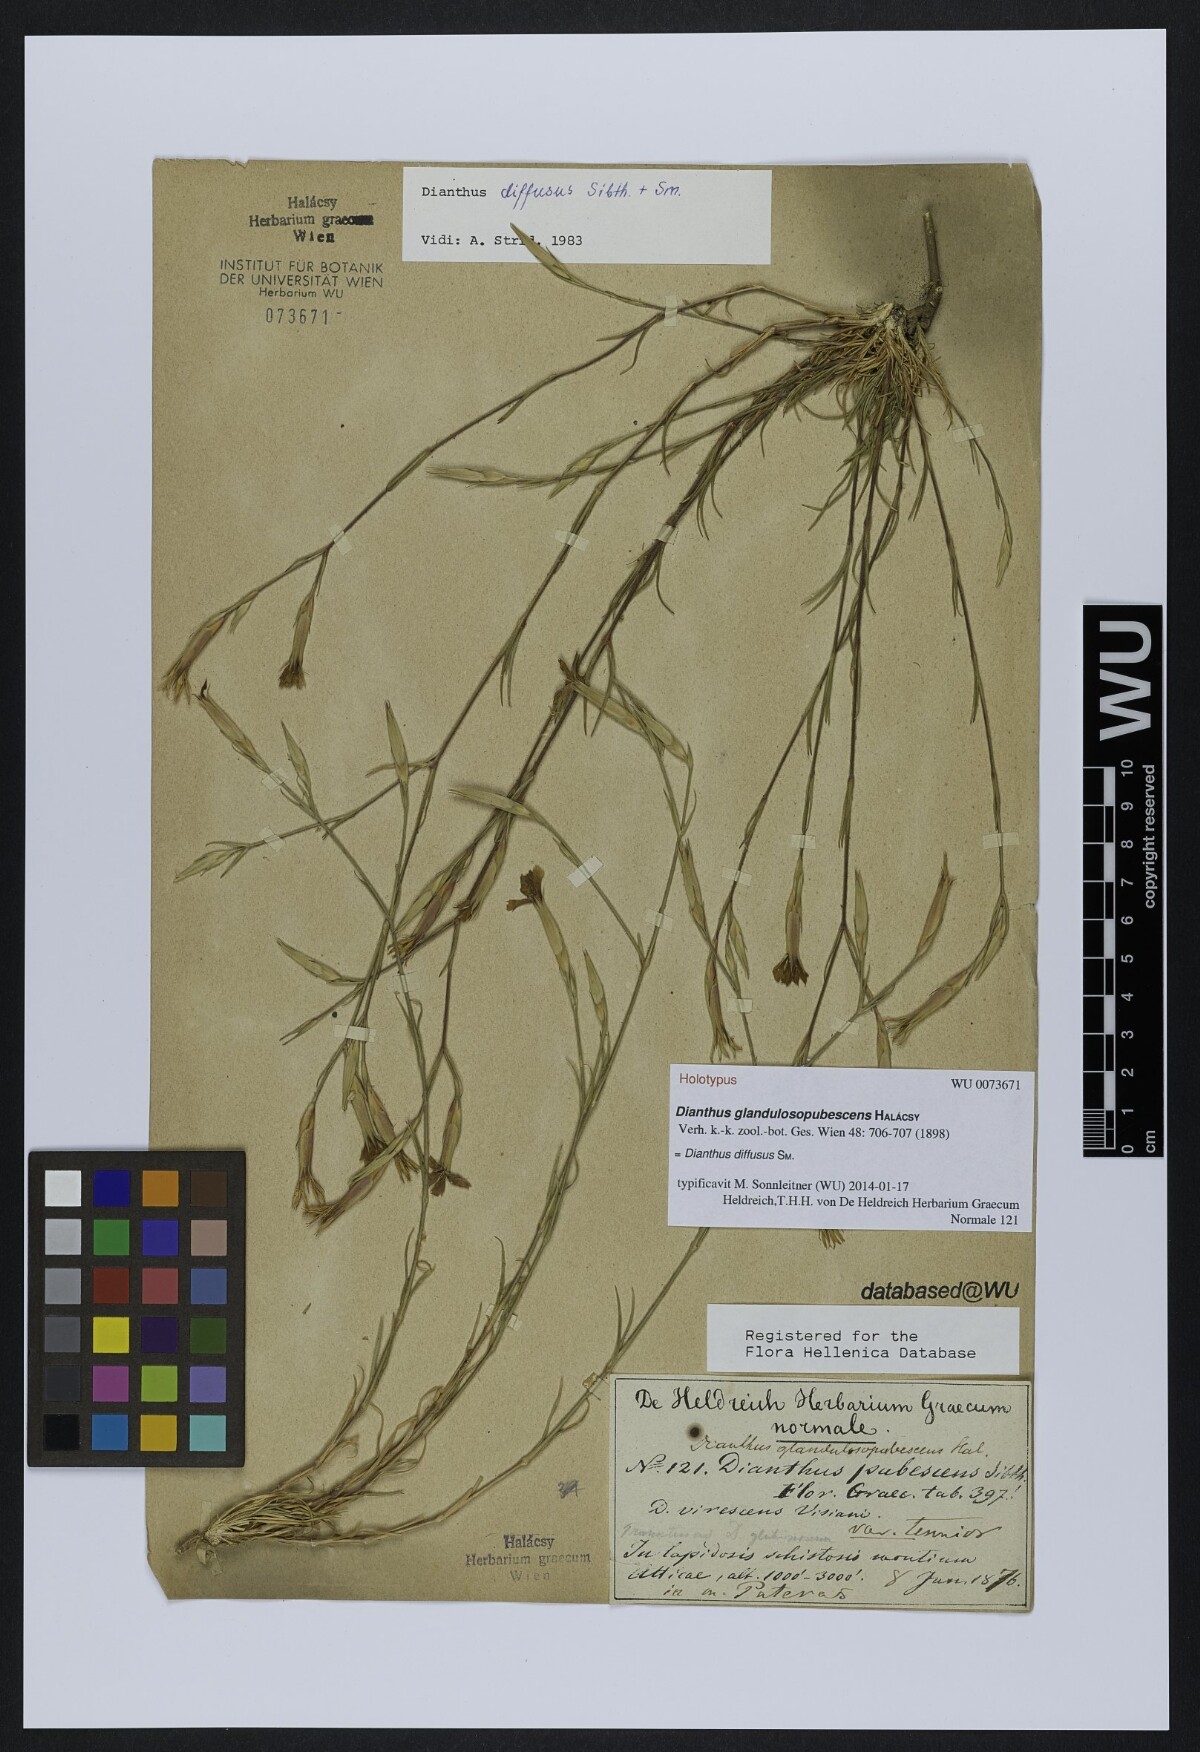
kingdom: Plantae
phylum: Tracheophyta
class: Magnoliopsida
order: Caryophyllales
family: Caryophyllaceae
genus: Dianthus
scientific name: Dianthus diffusus
